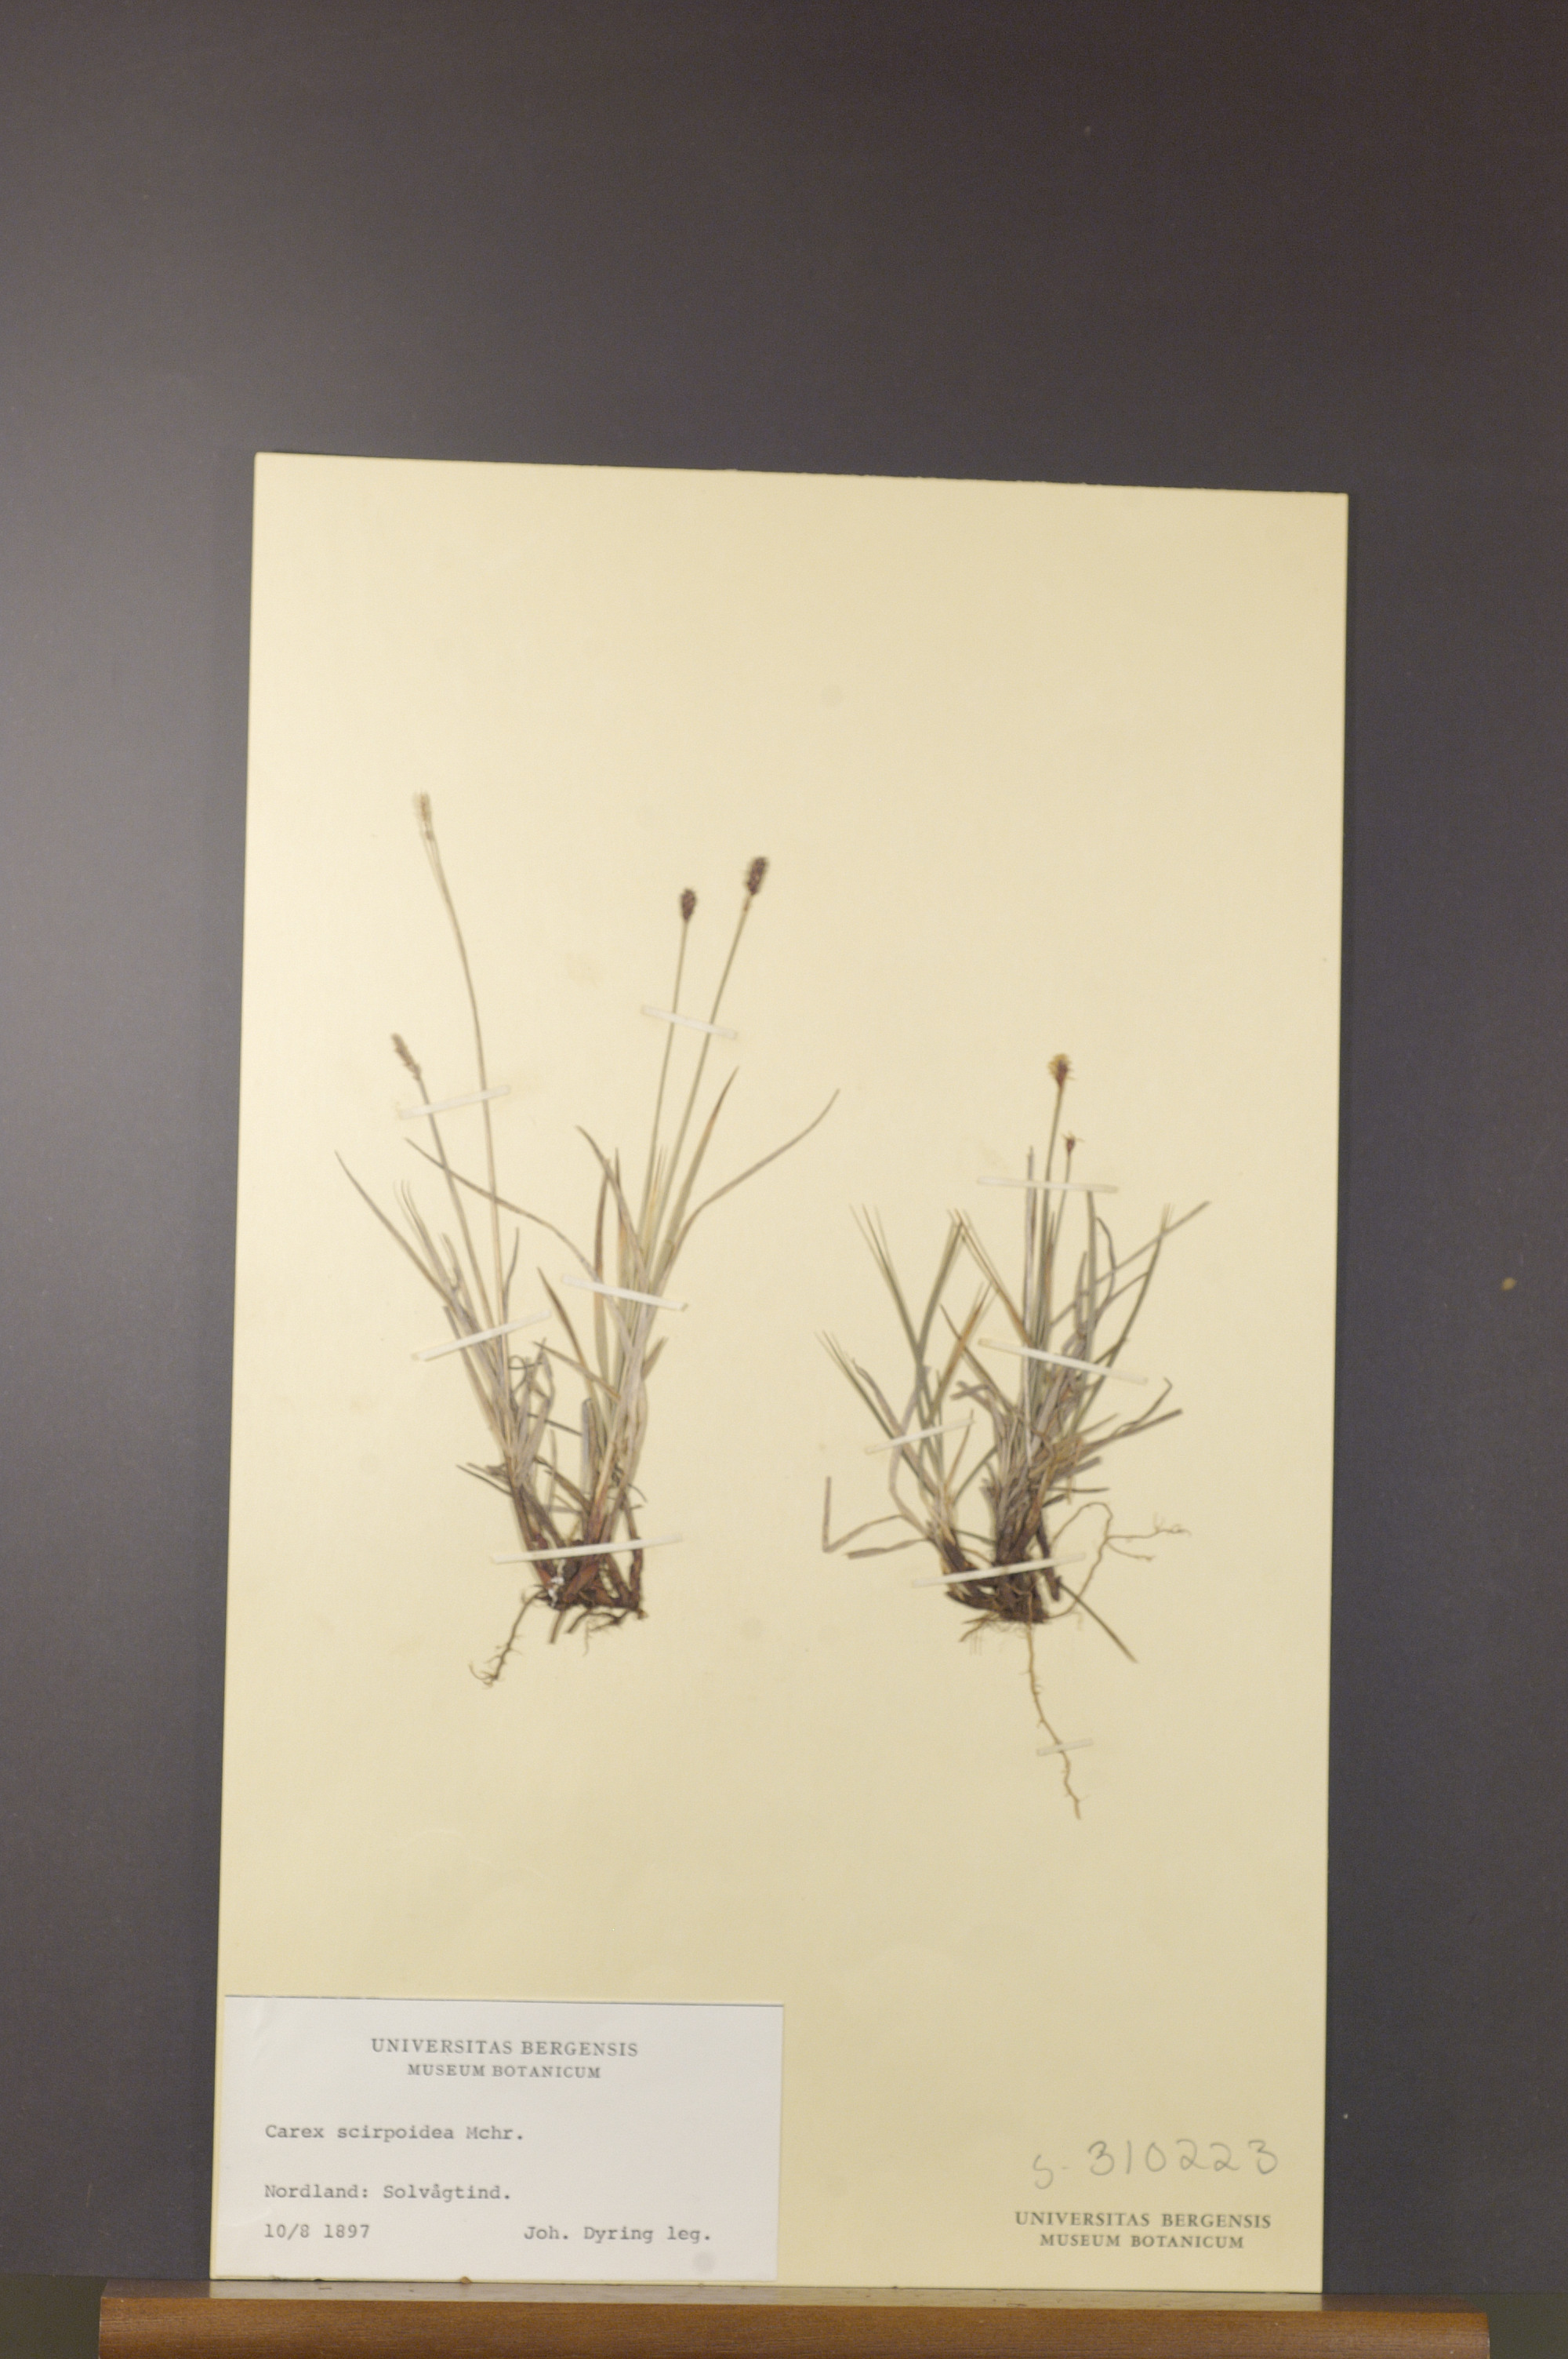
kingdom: Plantae
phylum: Tracheophyta
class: Liliopsida
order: Poales
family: Cyperaceae
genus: Carex
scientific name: Carex scirpoidea
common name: Canada single-spike sedge
